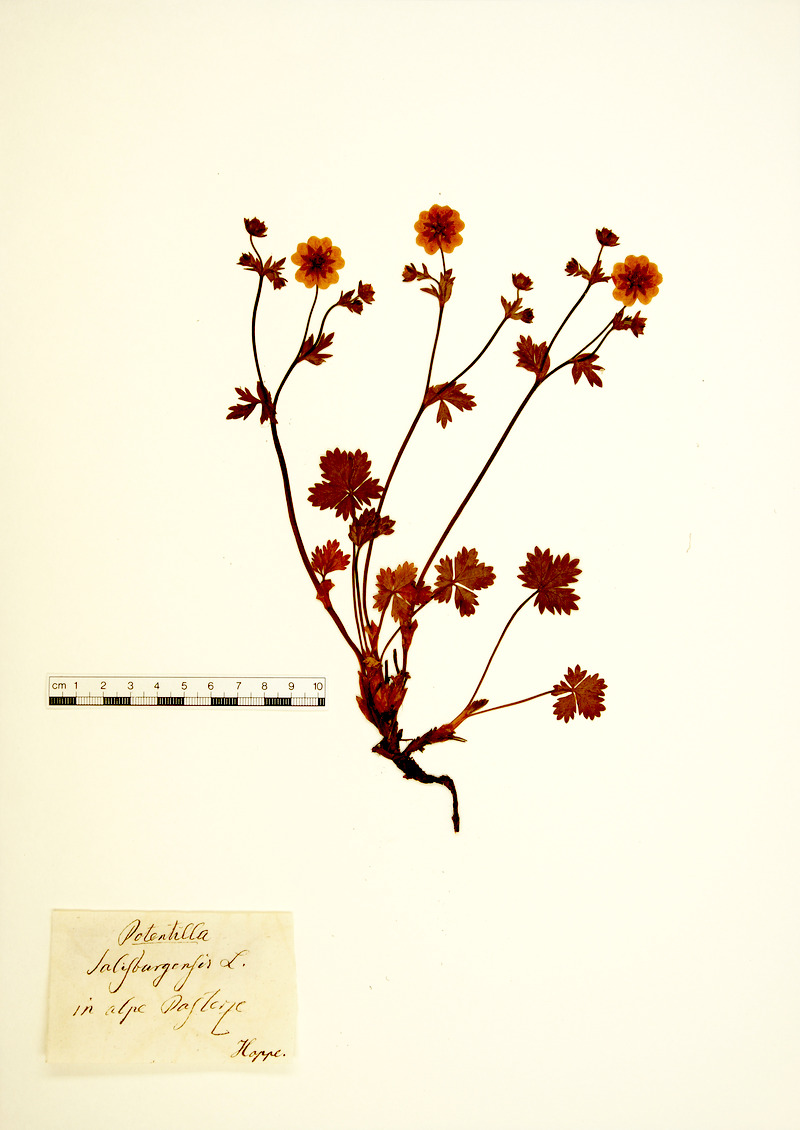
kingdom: Plantae
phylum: Tracheophyta
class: Magnoliopsida
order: Rosales
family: Rosaceae
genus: Potentilla
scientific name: Potentilla crantzii
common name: Alpine cinquefoil
